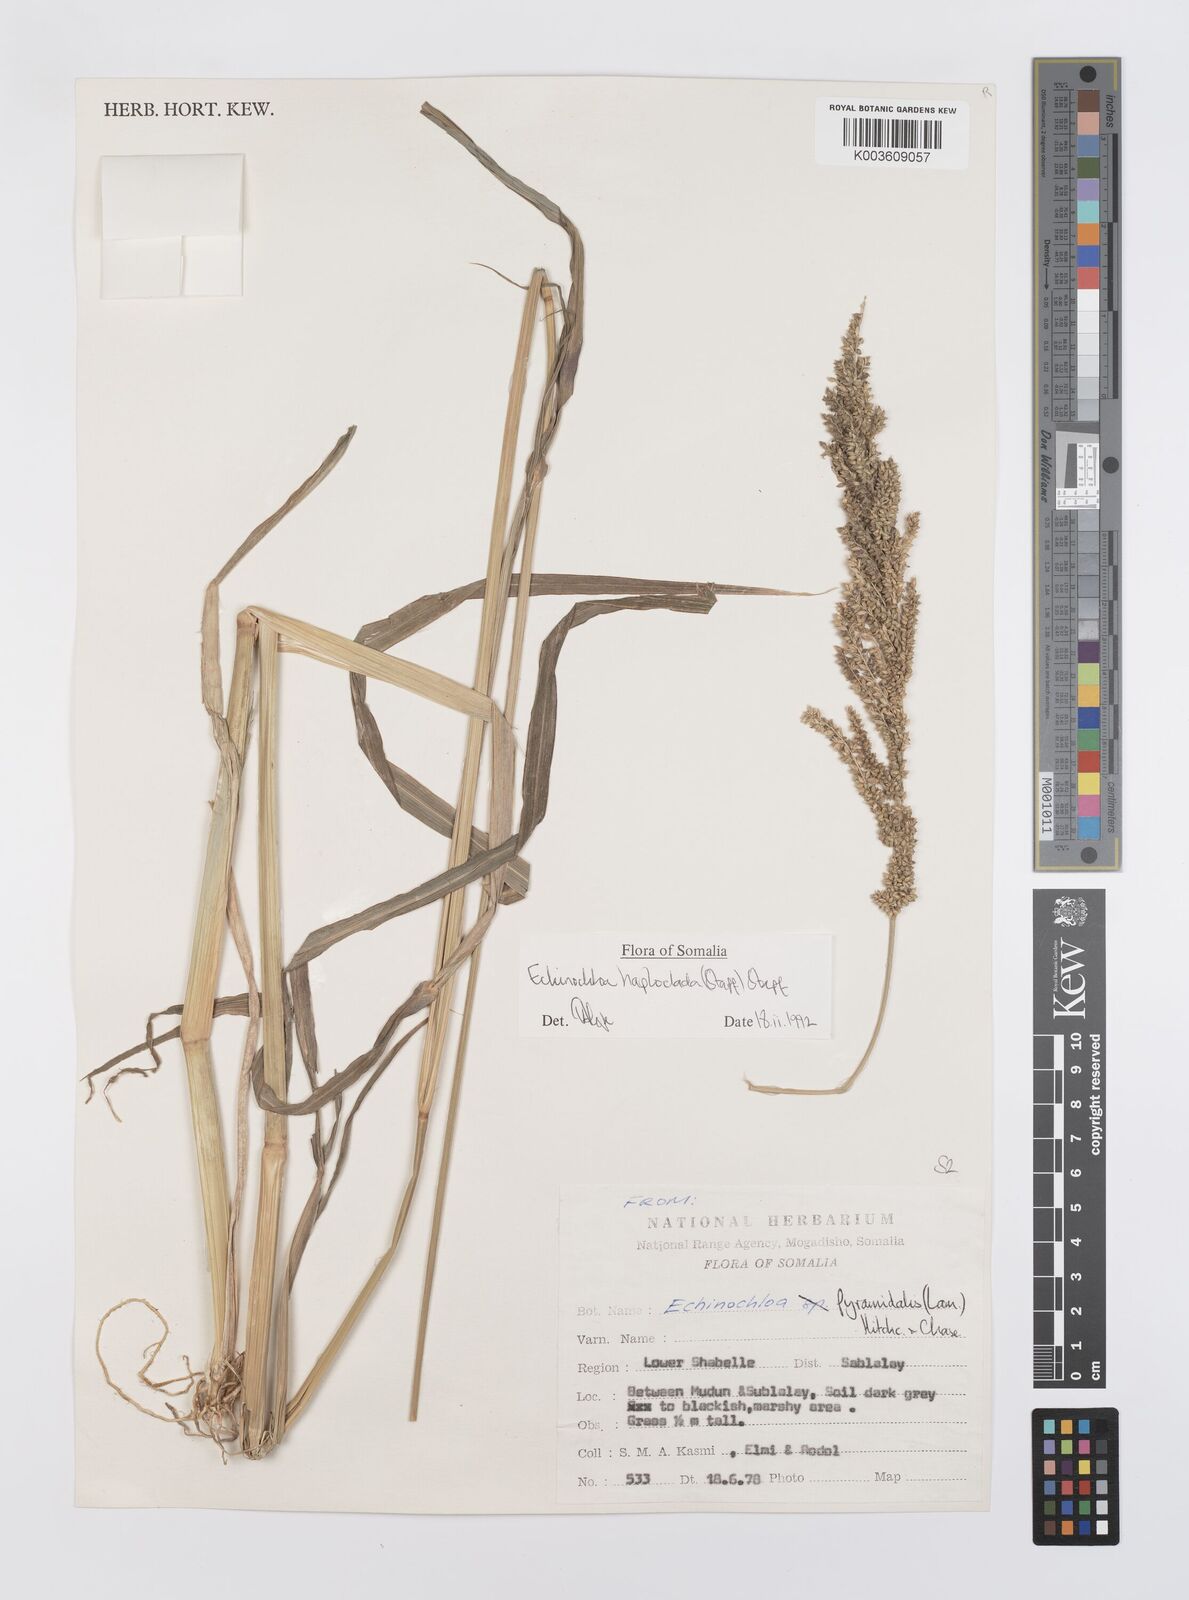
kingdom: Plantae
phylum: Tracheophyta
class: Liliopsida
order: Poales
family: Poaceae
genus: Echinochloa
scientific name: Echinochloa haploclada
